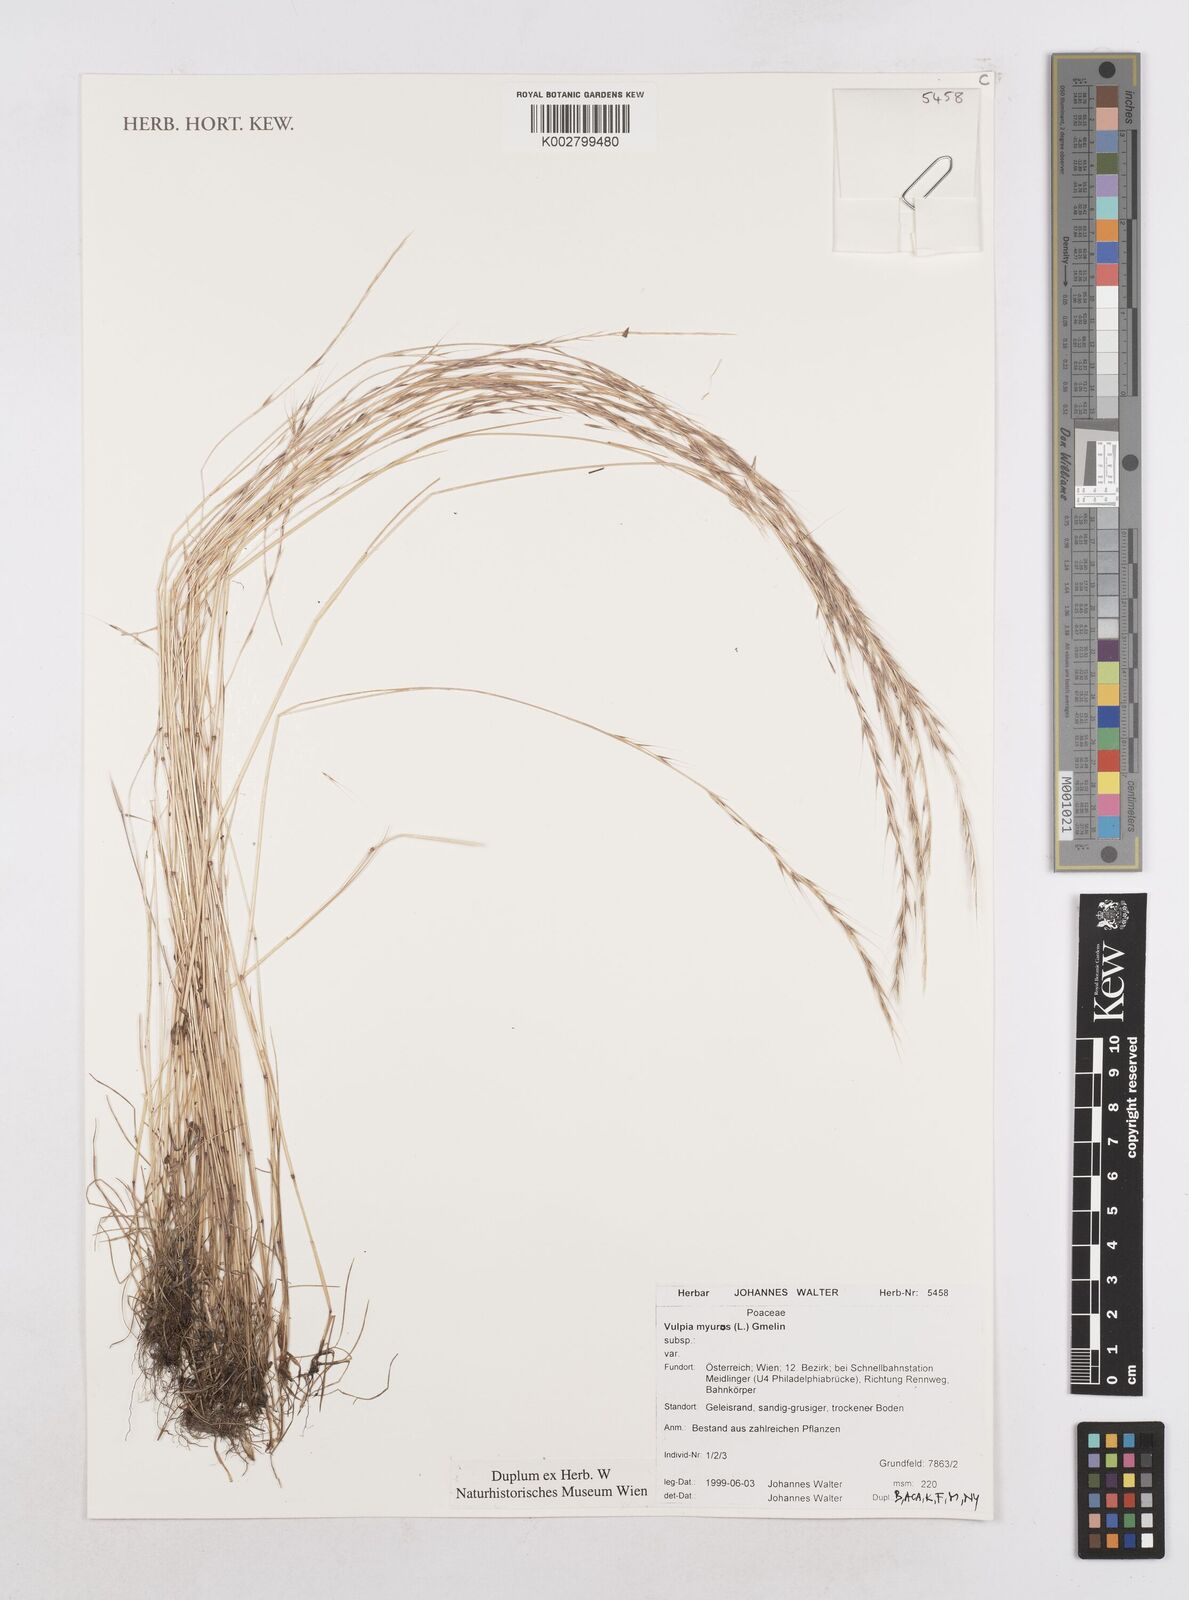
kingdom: Plantae
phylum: Tracheophyta
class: Liliopsida
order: Poales
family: Poaceae
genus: Festuca
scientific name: Festuca myuros
